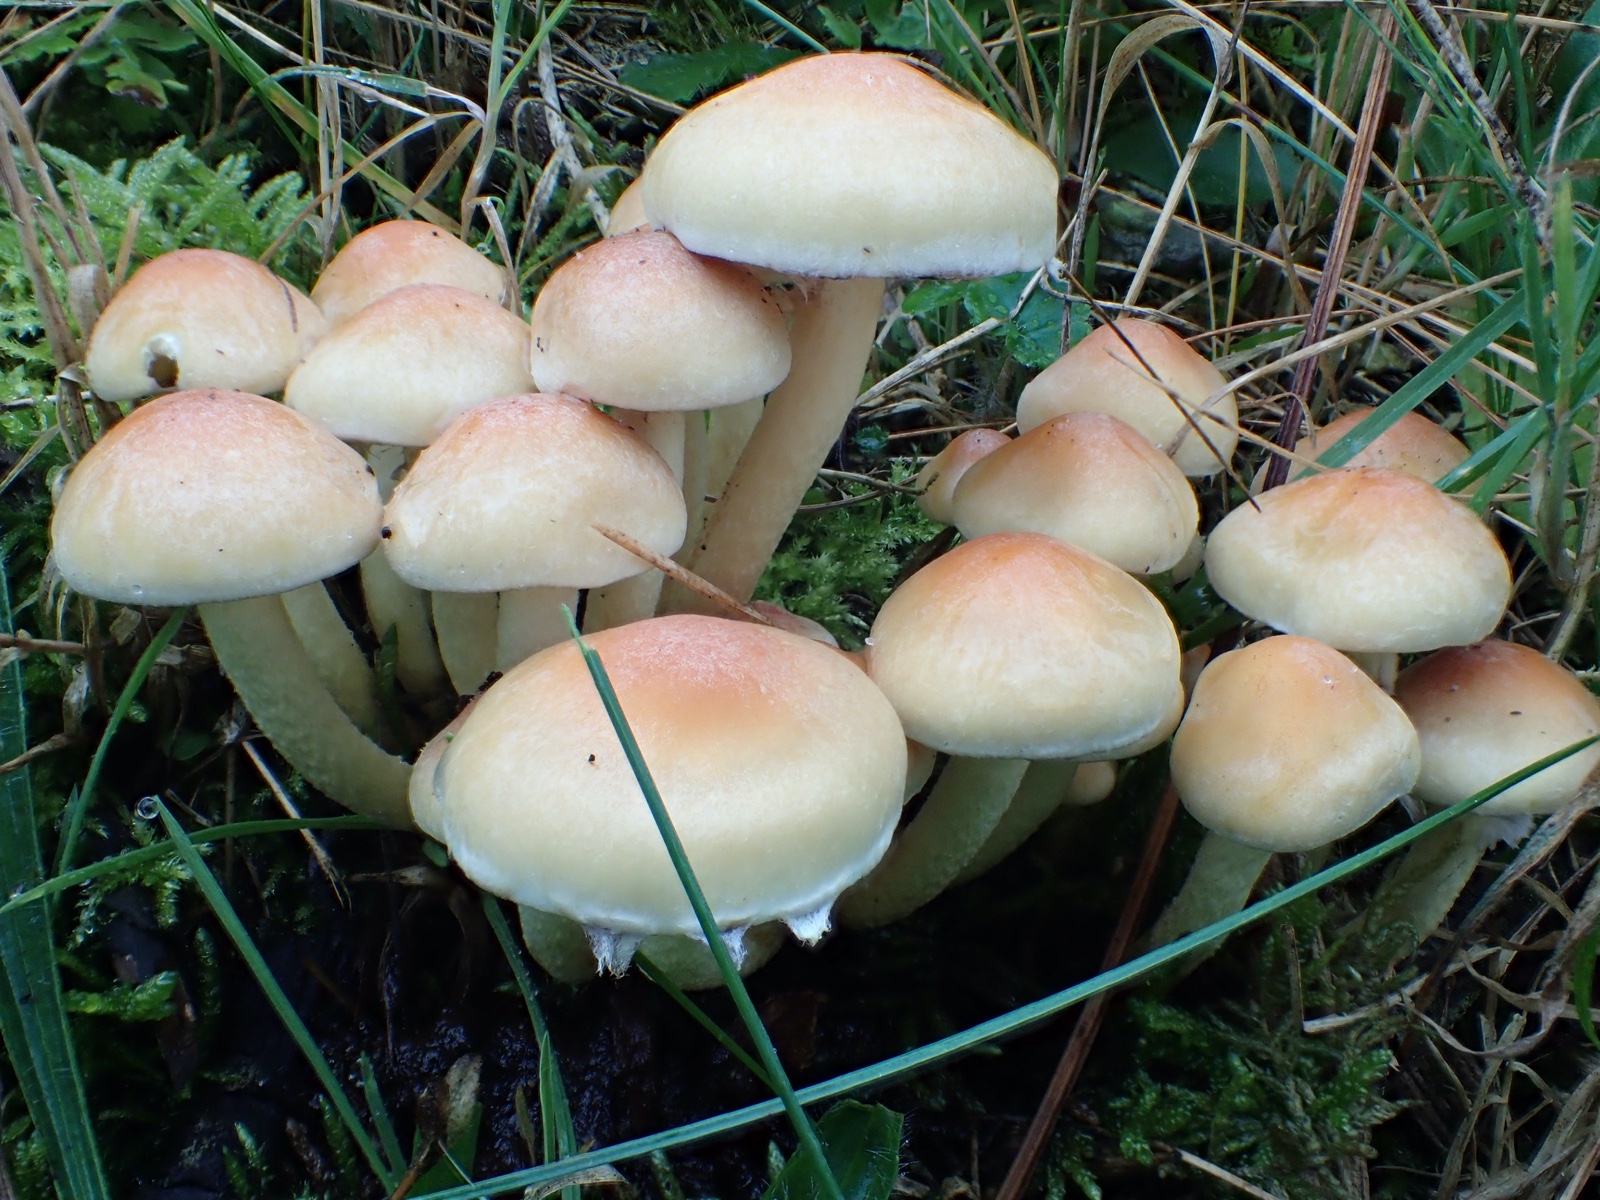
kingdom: Fungi
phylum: Basidiomycota
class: Agaricomycetes
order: Agaricales
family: Strophariaceae
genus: Hypholoma
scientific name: Hypholoma fasciculare
